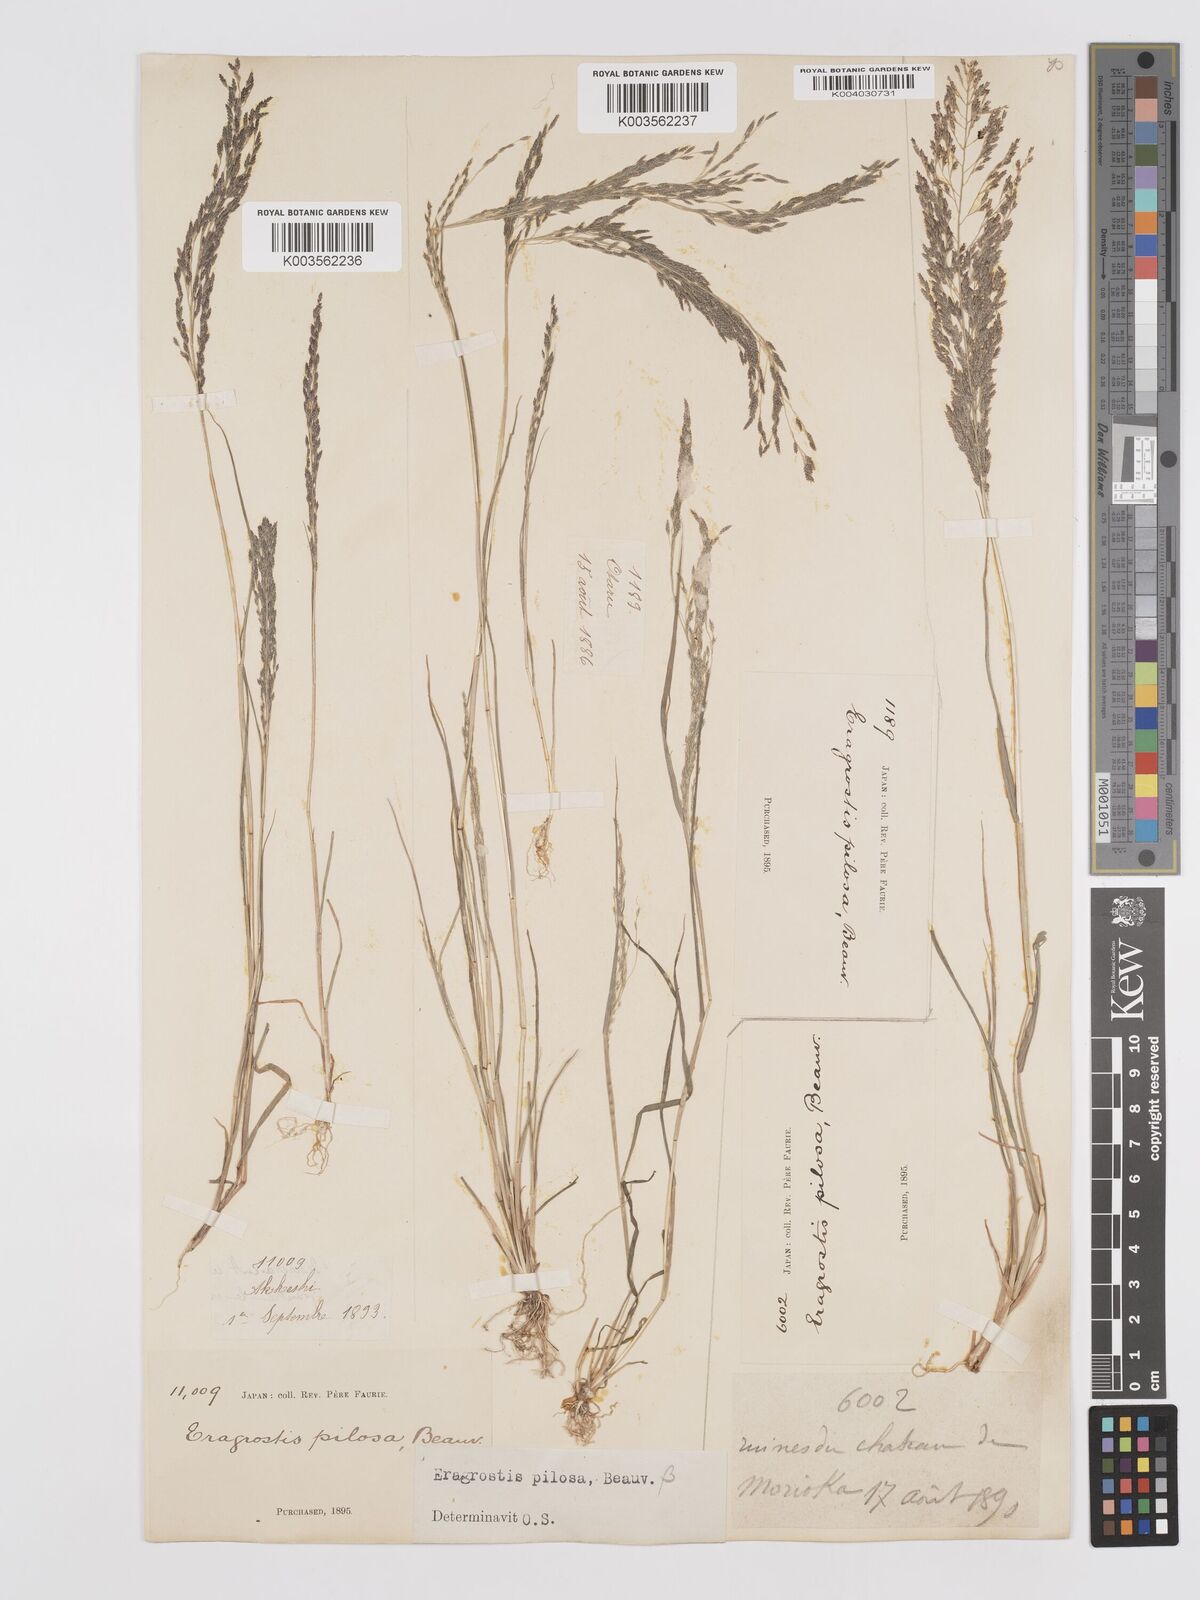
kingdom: Plantae
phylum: Tracheophyta
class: Liliopsida
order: Poales
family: Poaceae
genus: Eragrostis
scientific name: Eragrostis pilosa
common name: Indian lovegrass
